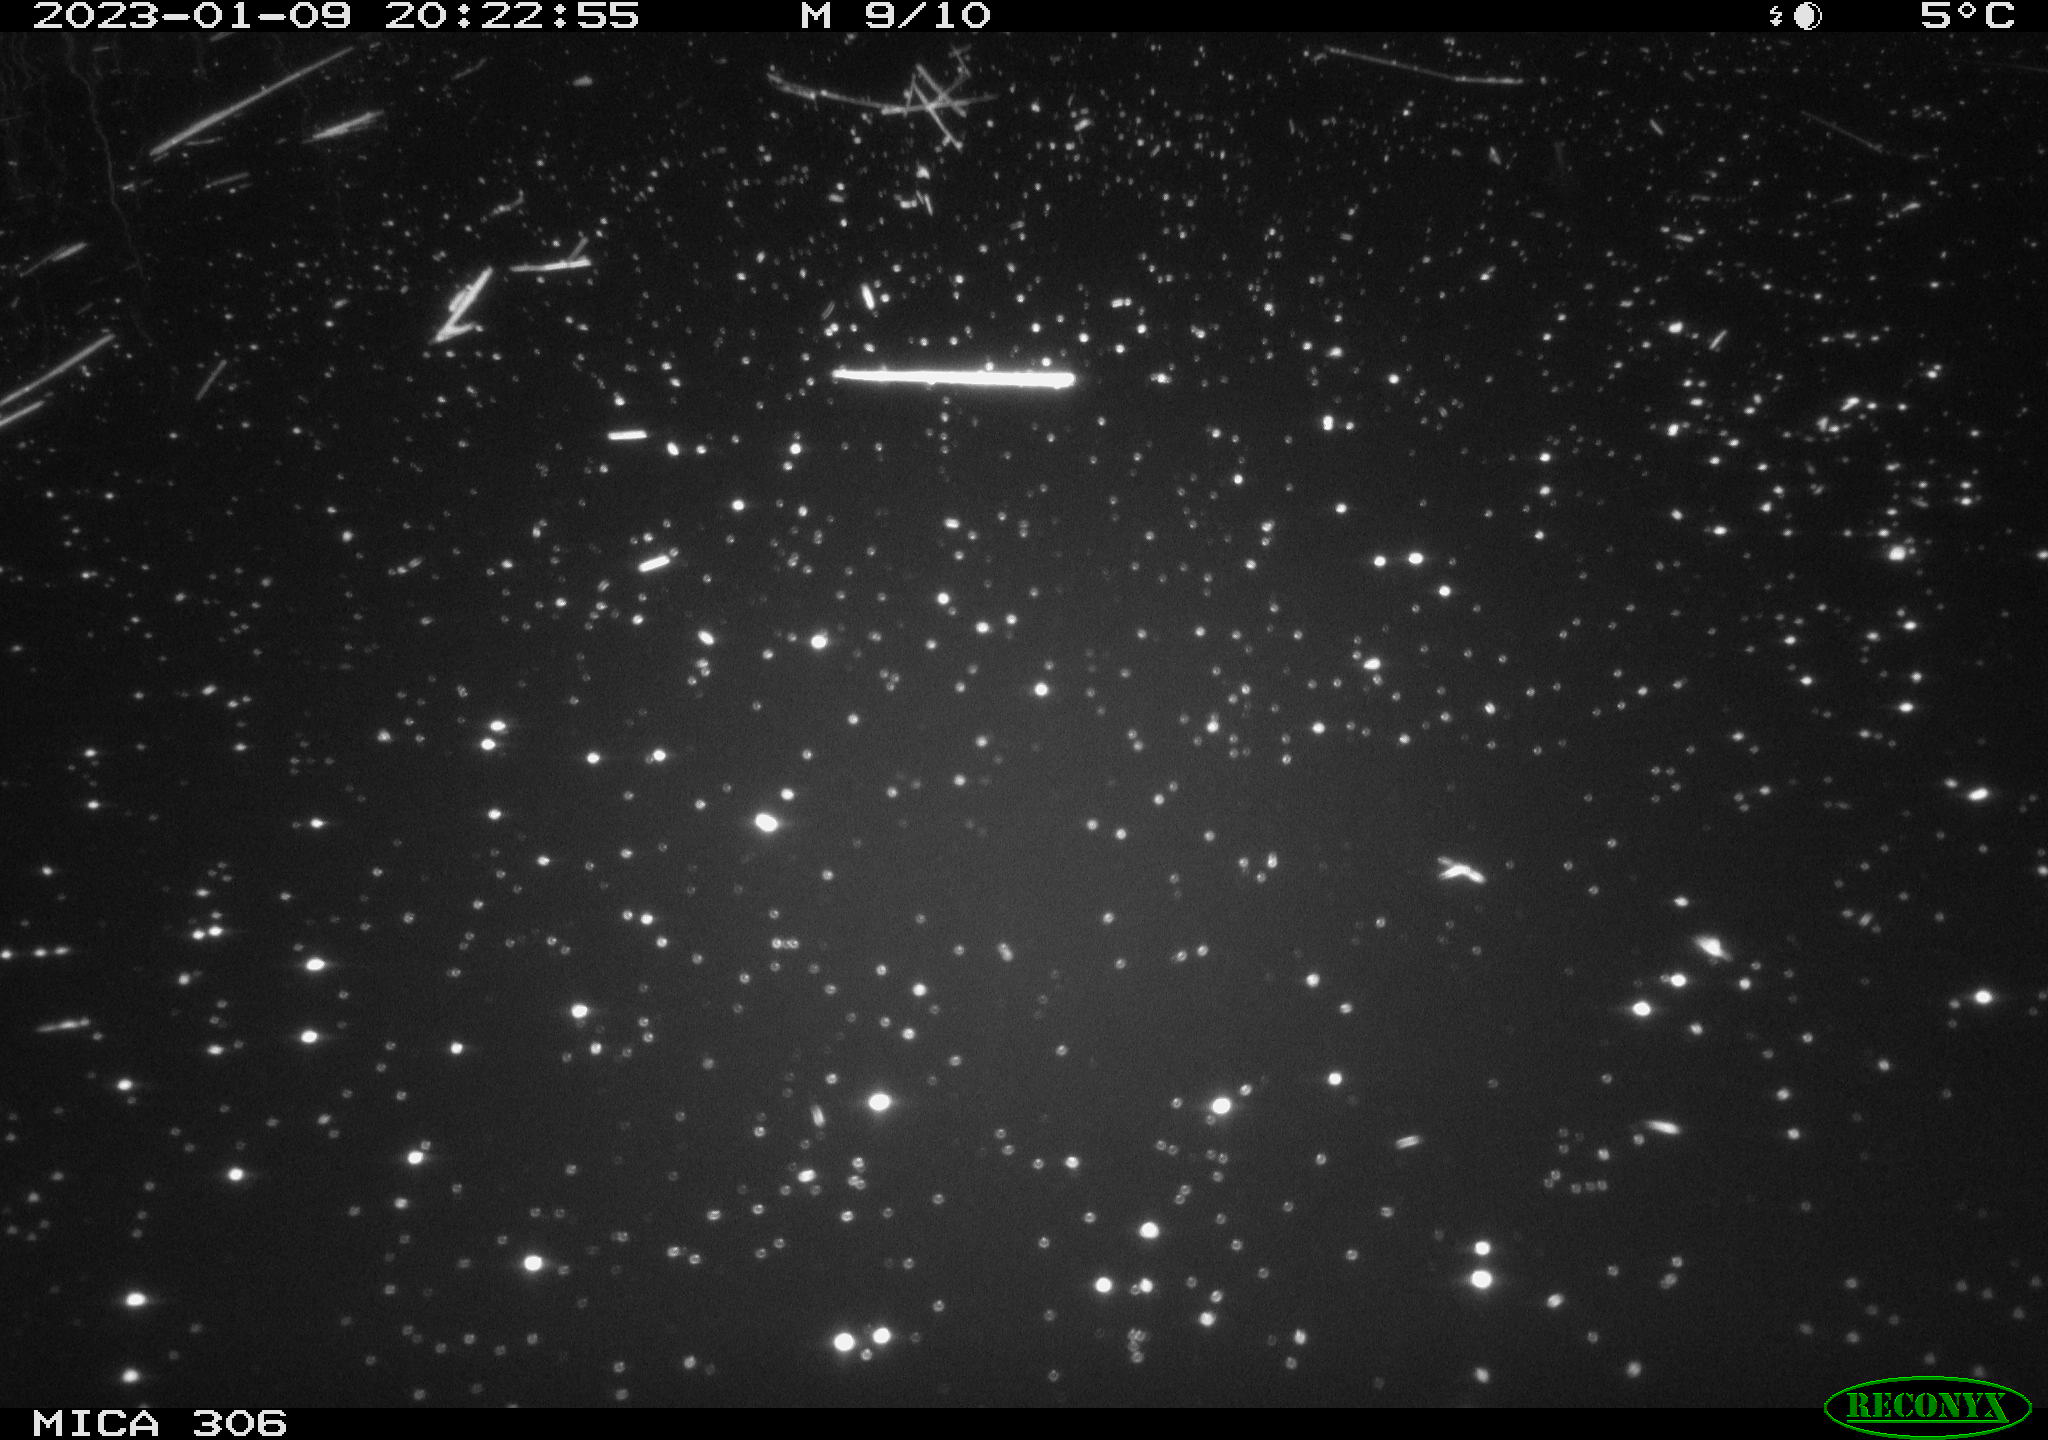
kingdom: Animalia
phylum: Chordata
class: Mammalia
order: Rodentia
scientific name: Rodentia
